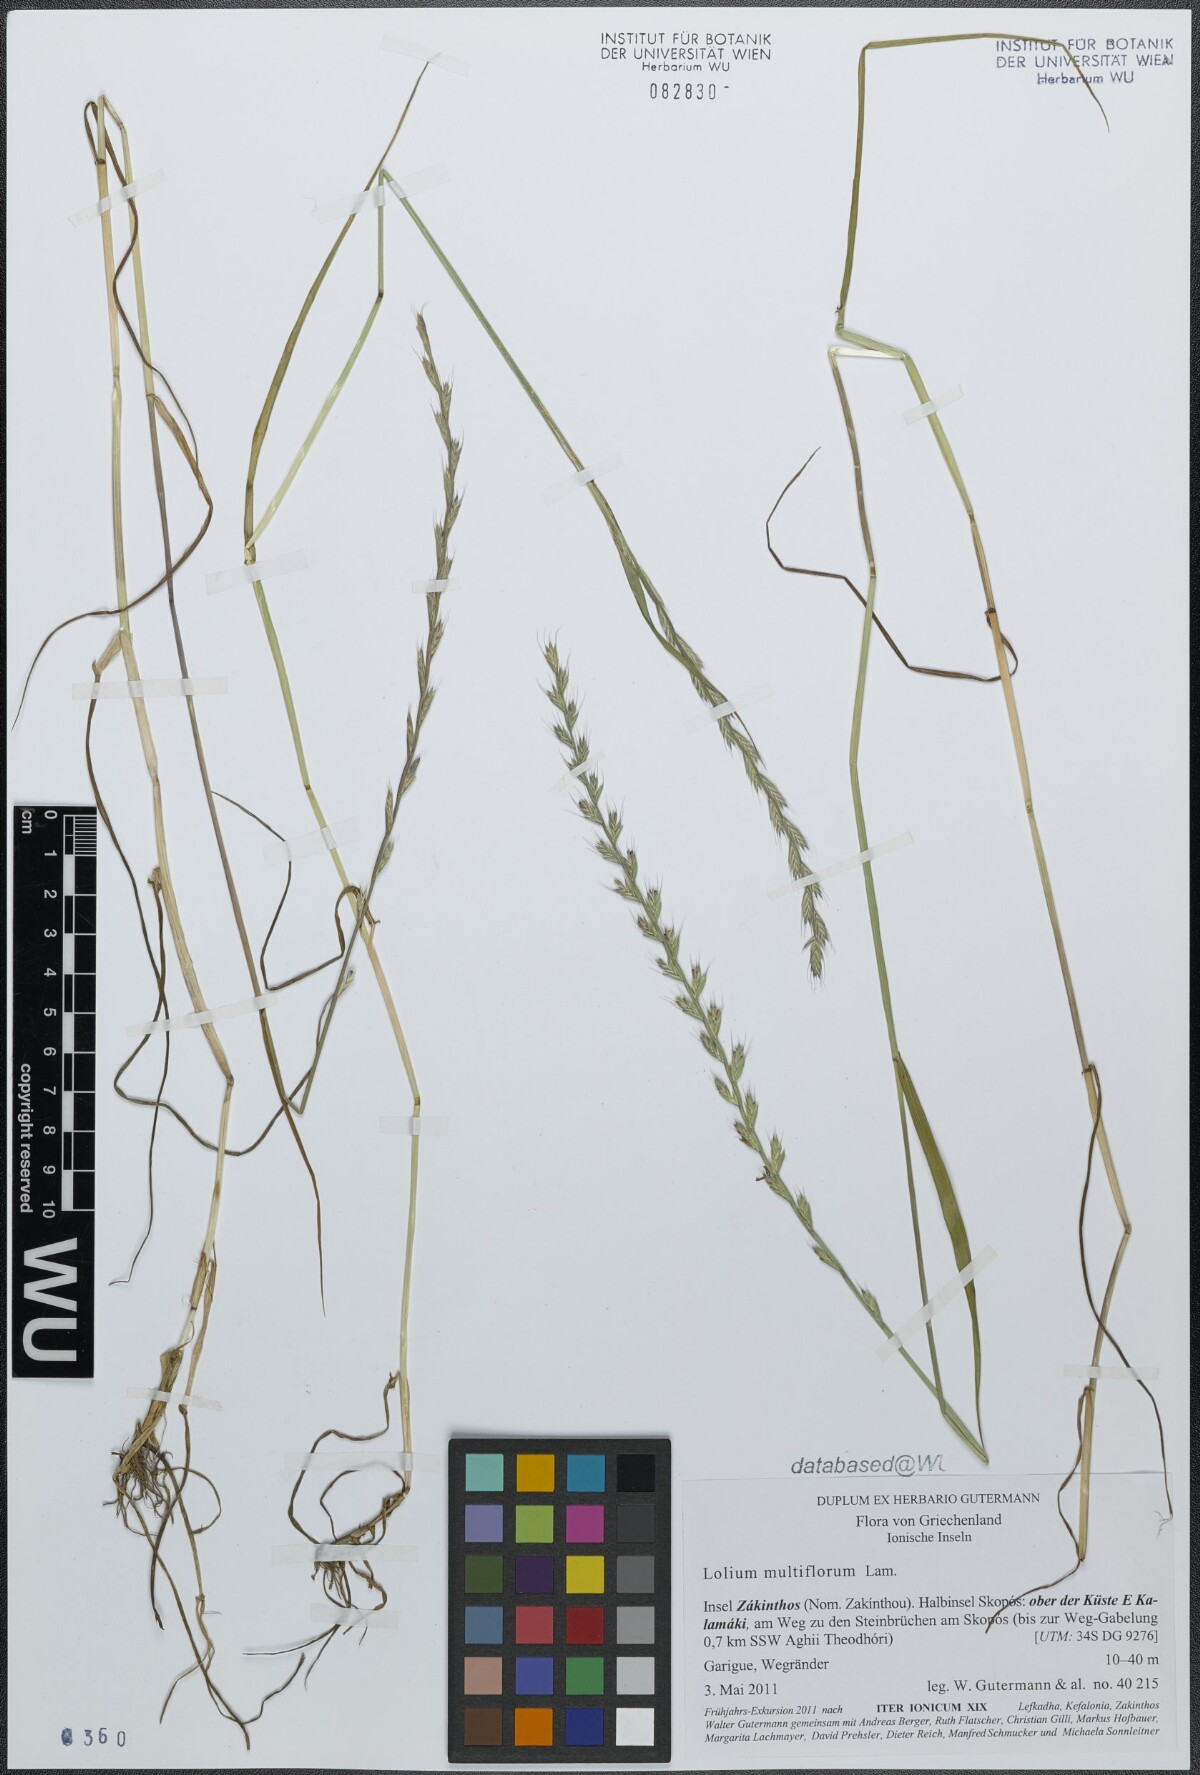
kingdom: Plantae
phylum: Tracheophyta
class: Liliopsida
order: Poales
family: Poaceae
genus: Lolium
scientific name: Lolium multiflorum
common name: Annual ryegrass
